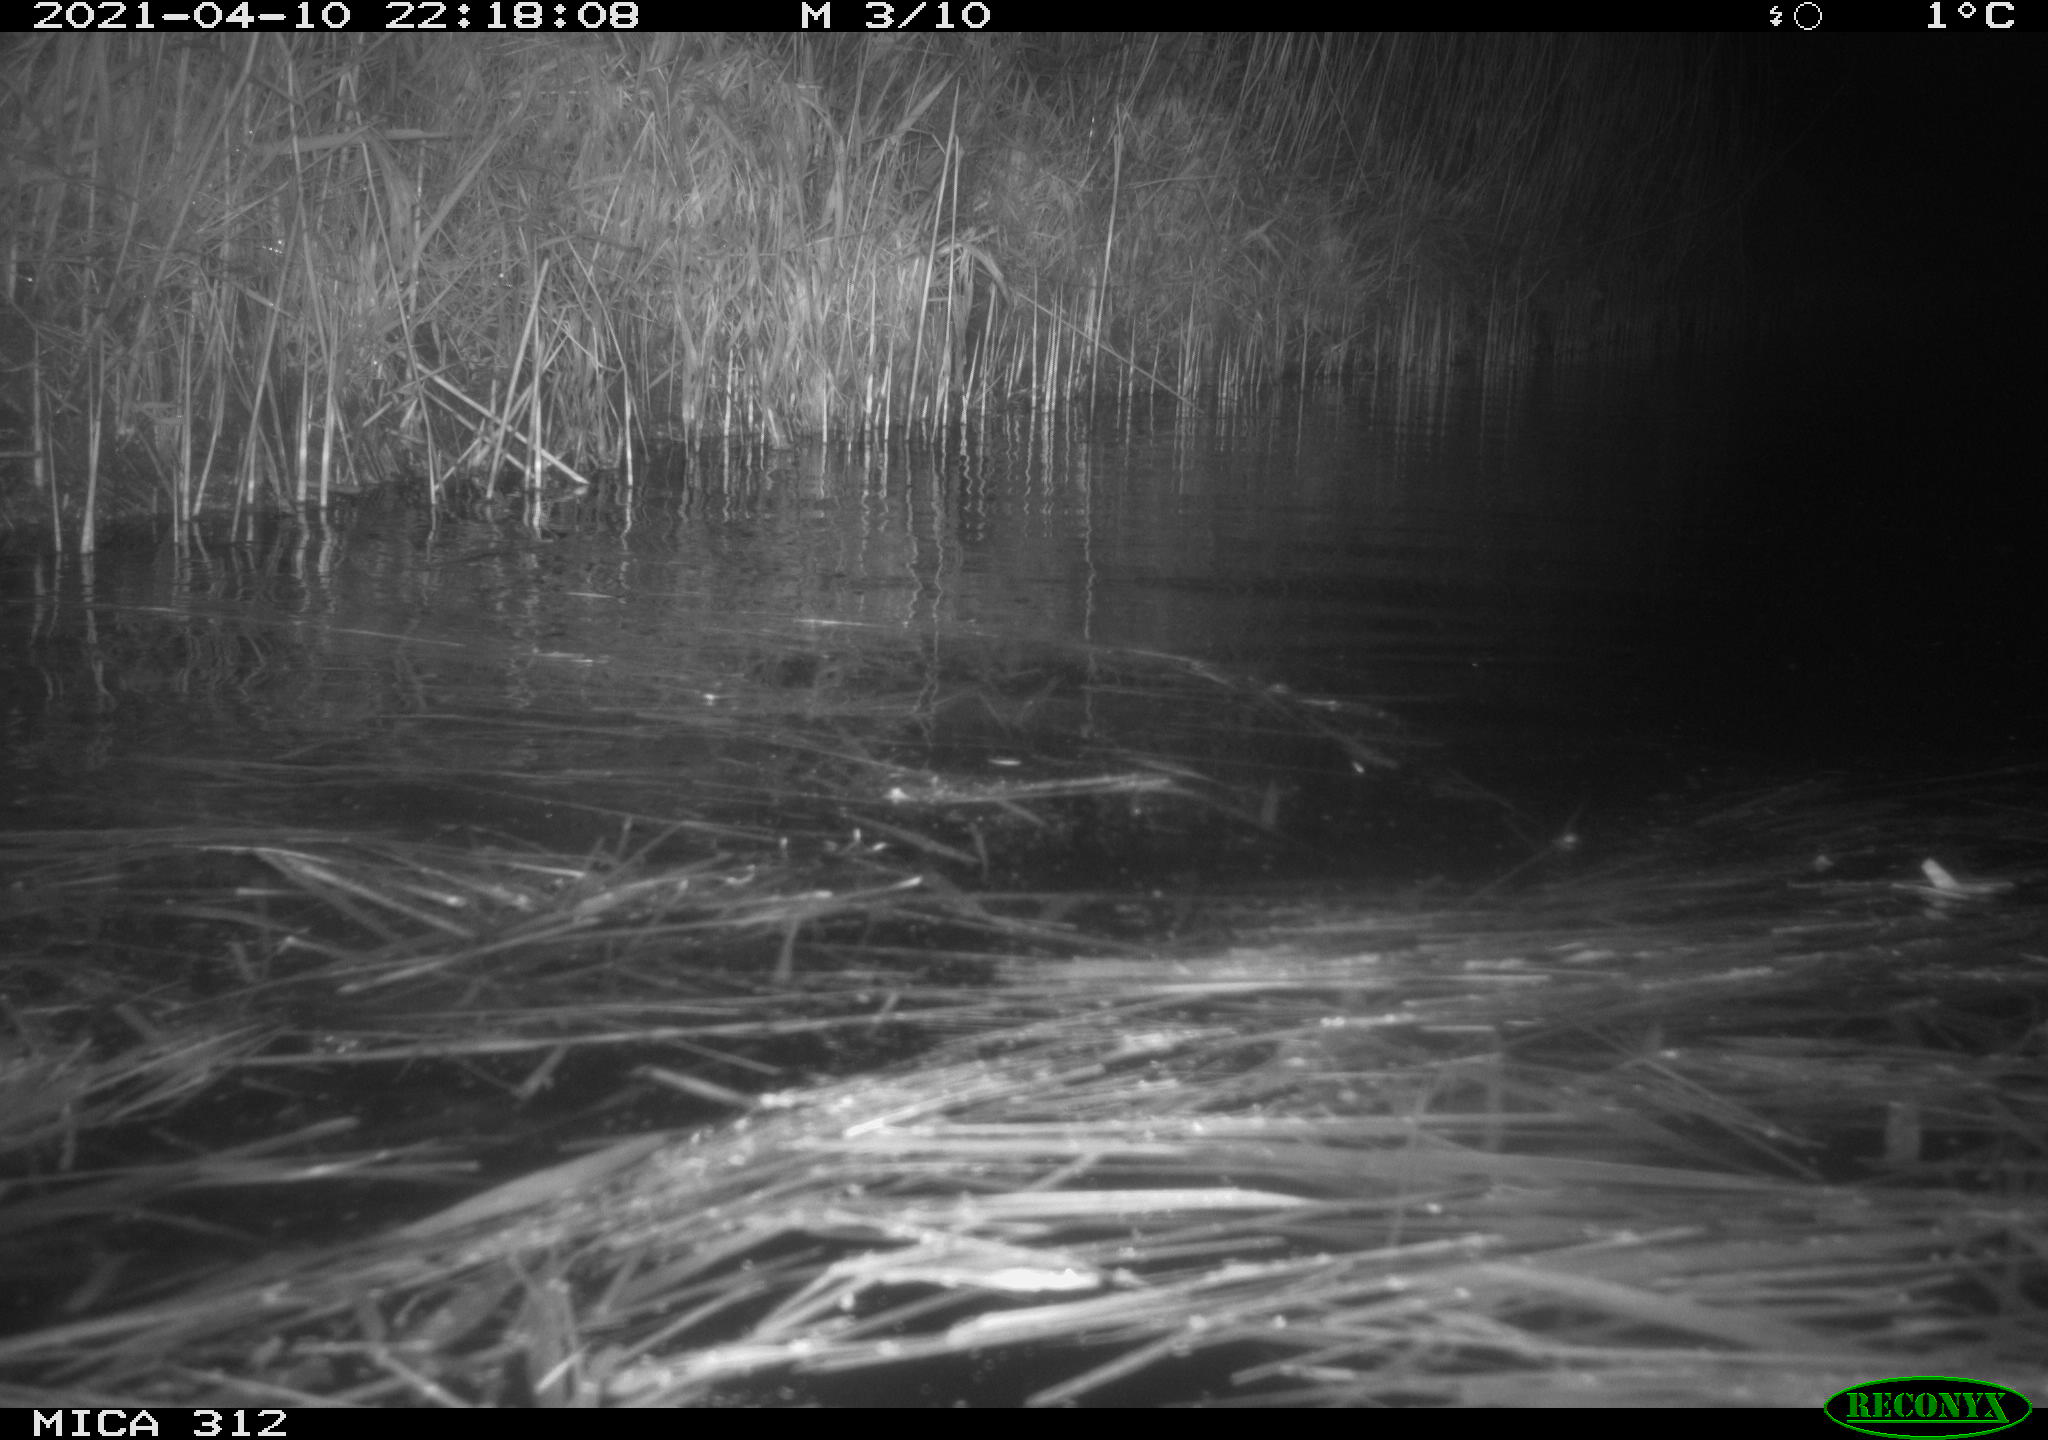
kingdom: Animalia
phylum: Chordata
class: Mammalia
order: Rodentia
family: Cricetidae
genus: Ondatra
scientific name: Ondatra zibethicus
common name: Muskrat
